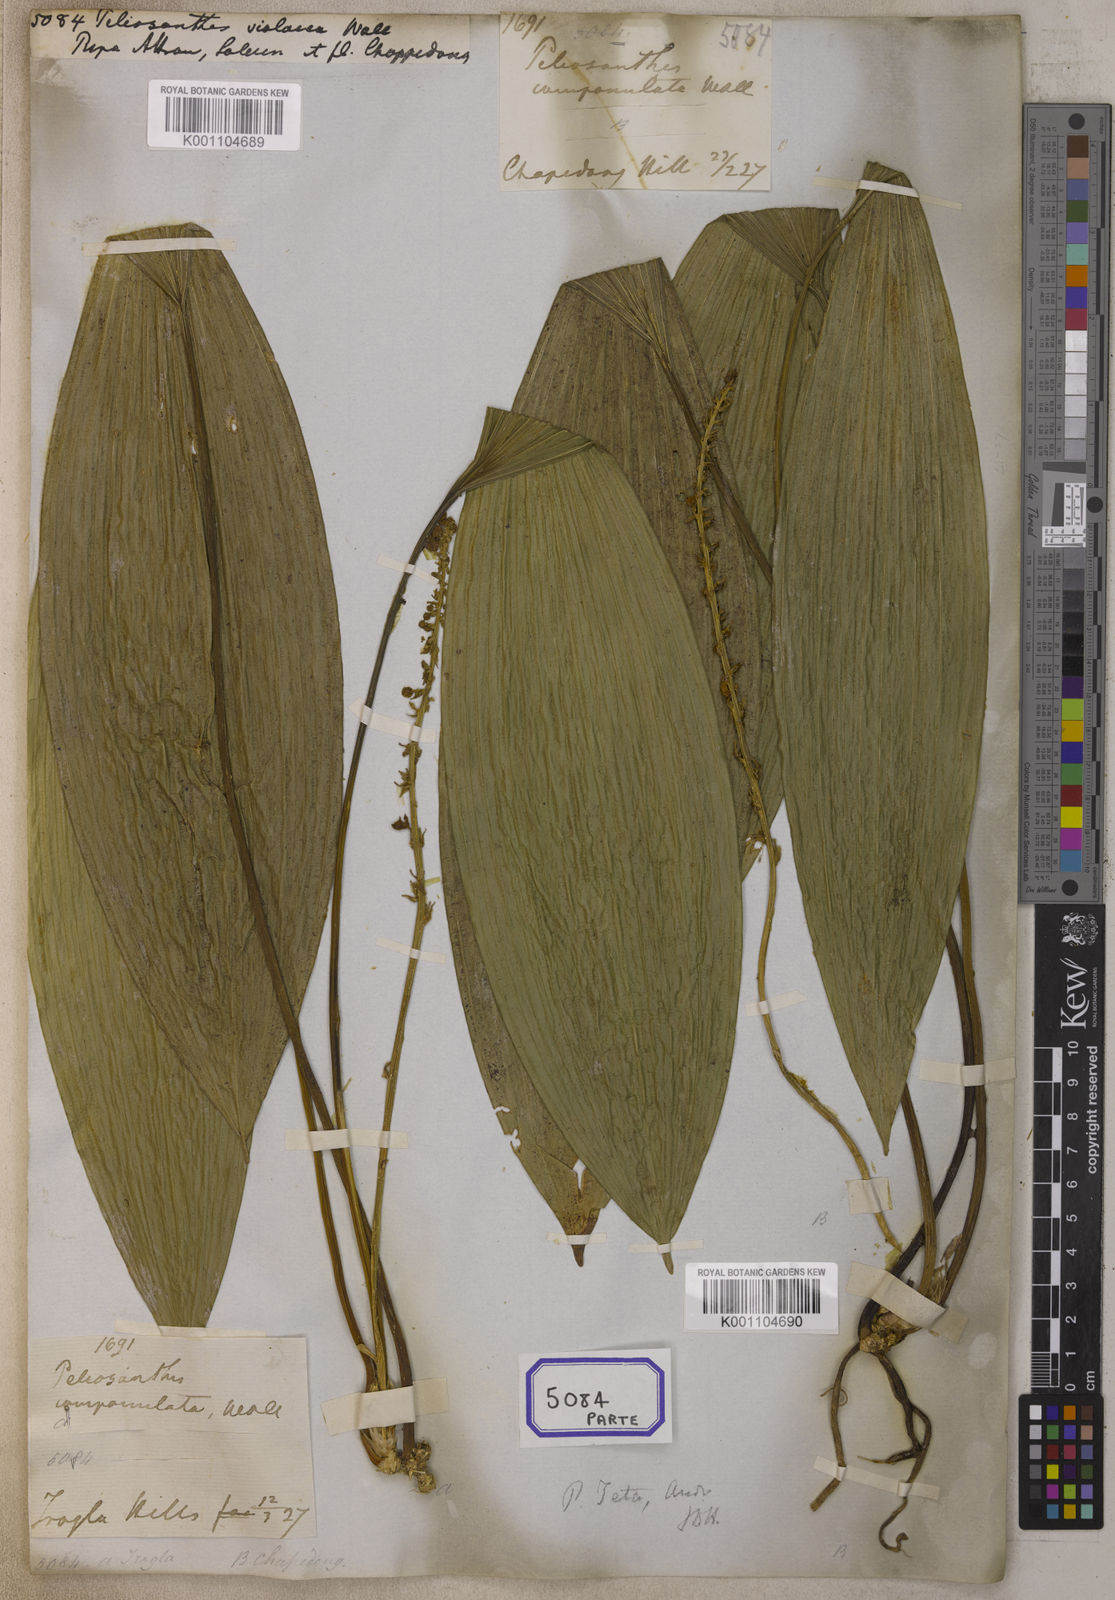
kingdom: Plantae
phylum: Tracheophyta
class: Liliopsida
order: Asparagales
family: Asparagaceae
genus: Peliosanthes
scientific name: Peliosanthes
